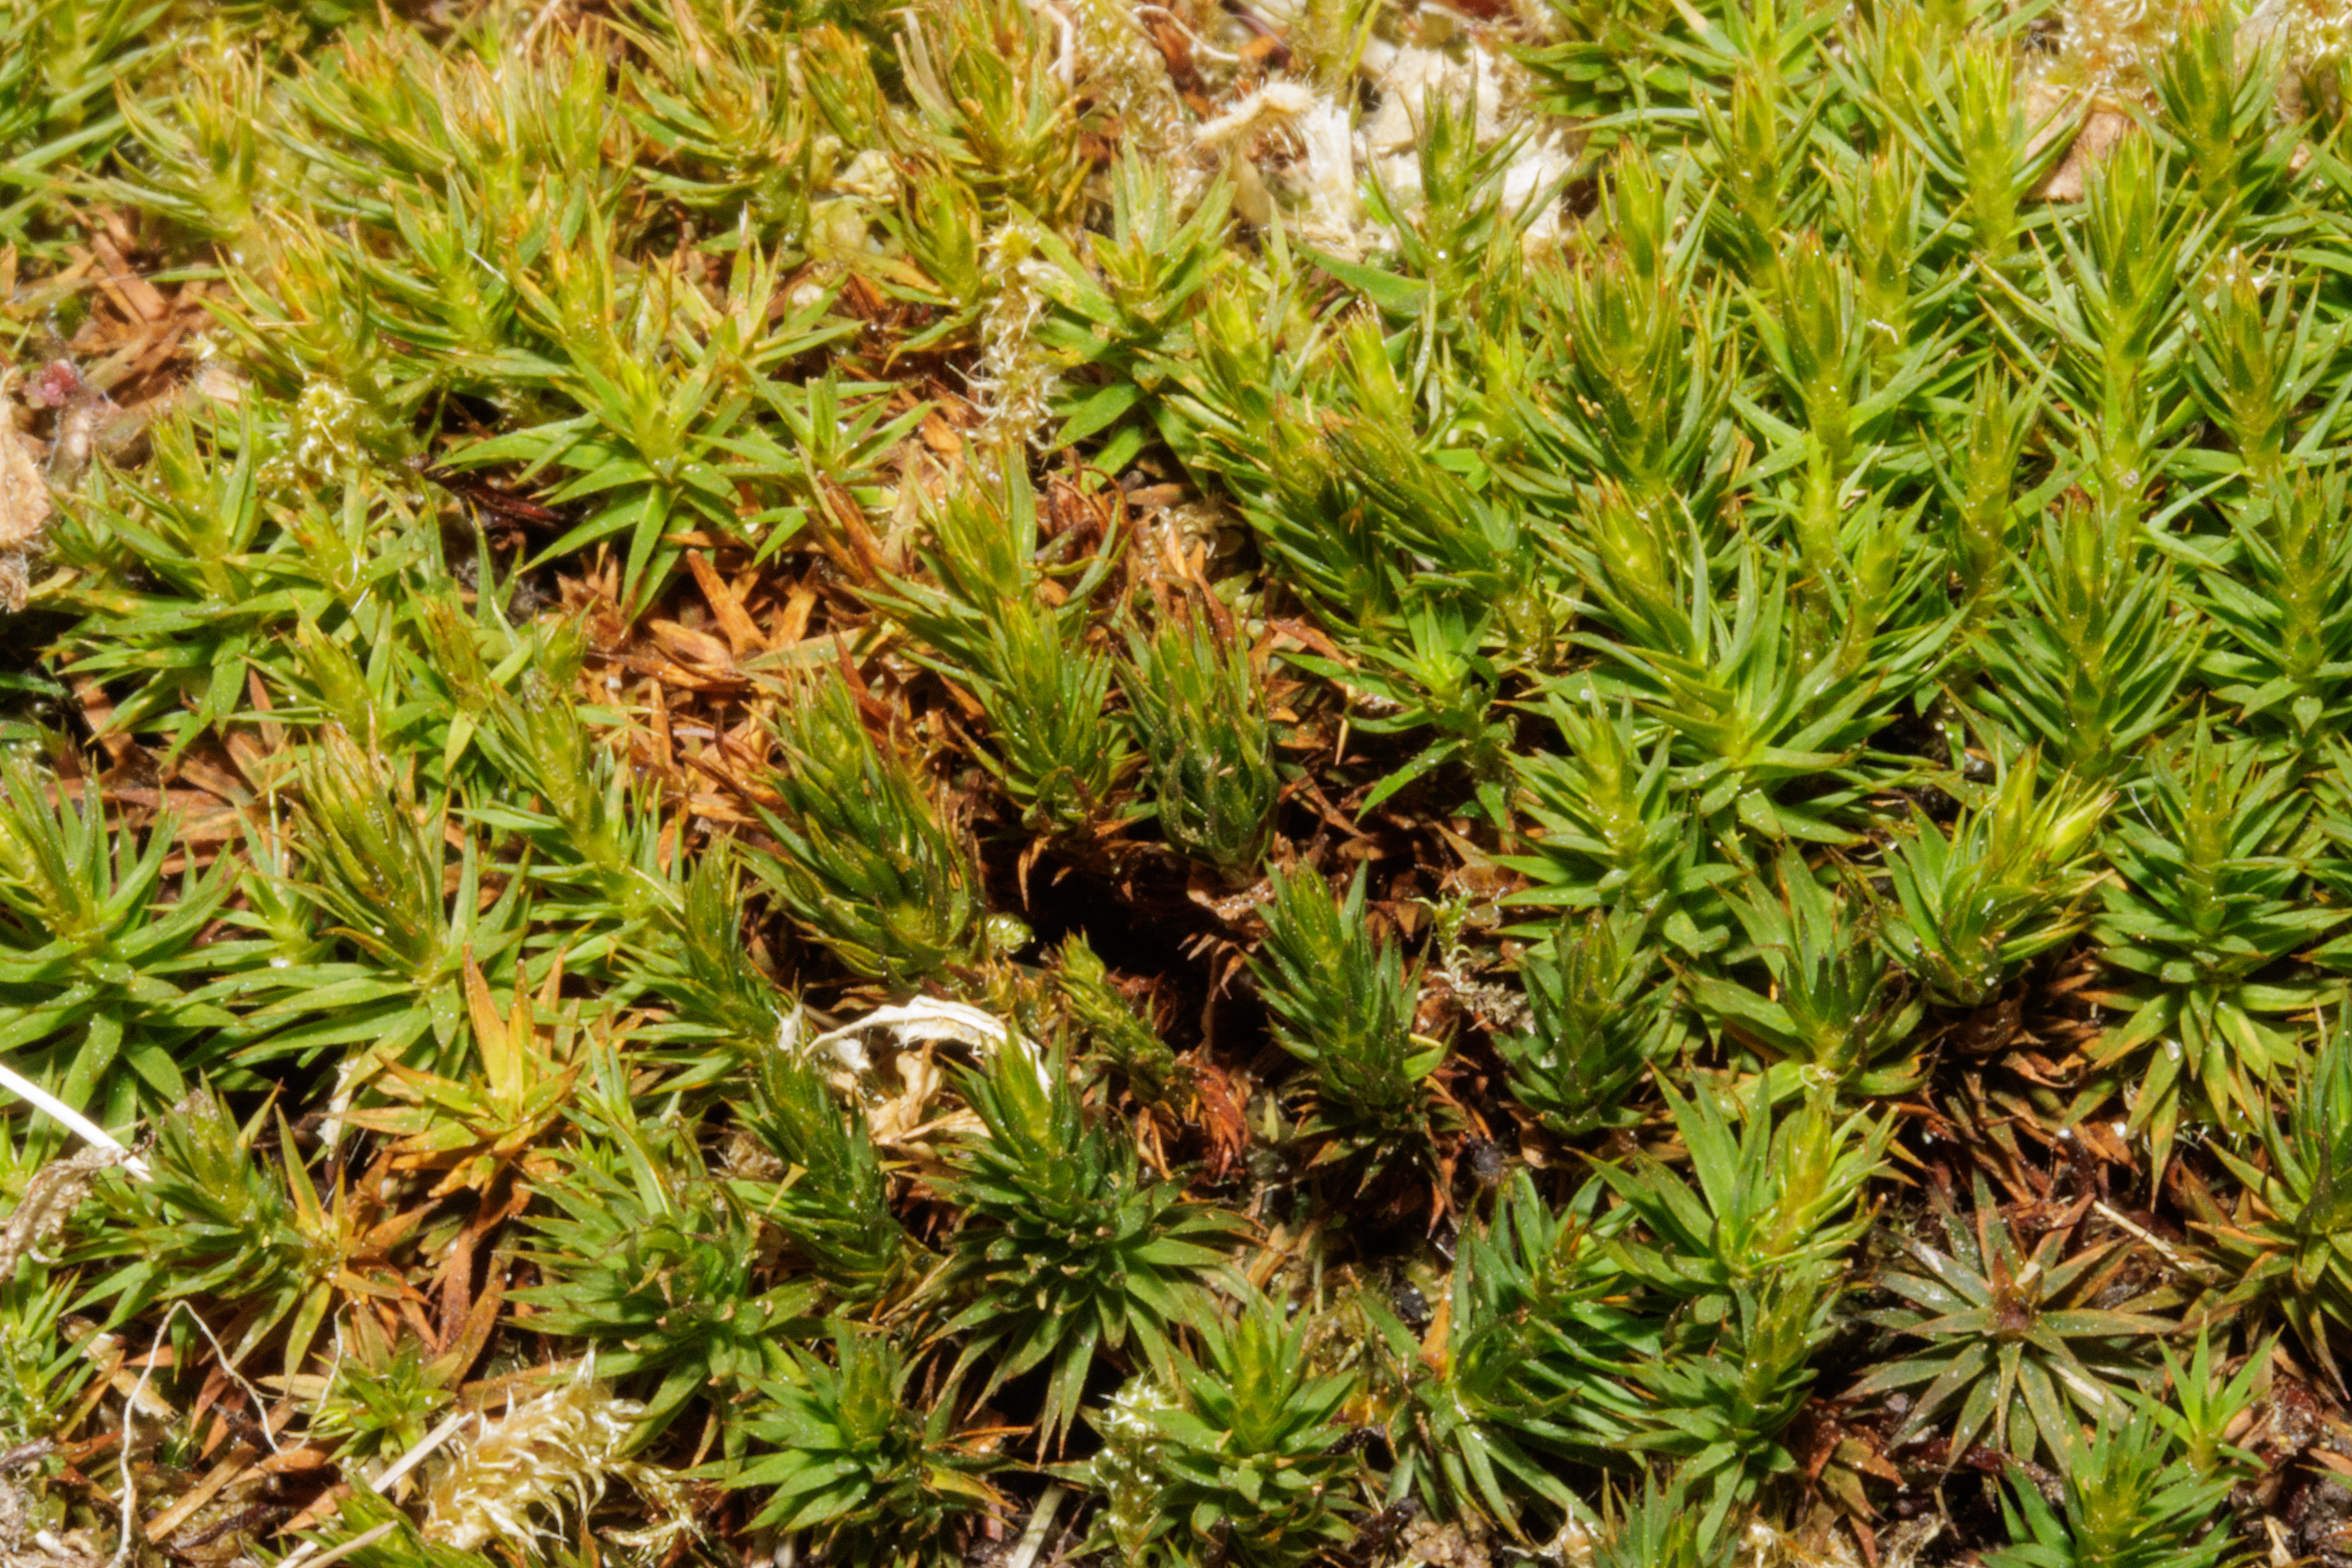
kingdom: Plantae
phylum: Bryophyta
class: Polytrichopsida
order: Polytrichales
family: Polytrichaceae
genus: Polytrichum
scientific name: Polytrichum formosum
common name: Skov-jomfruhår
